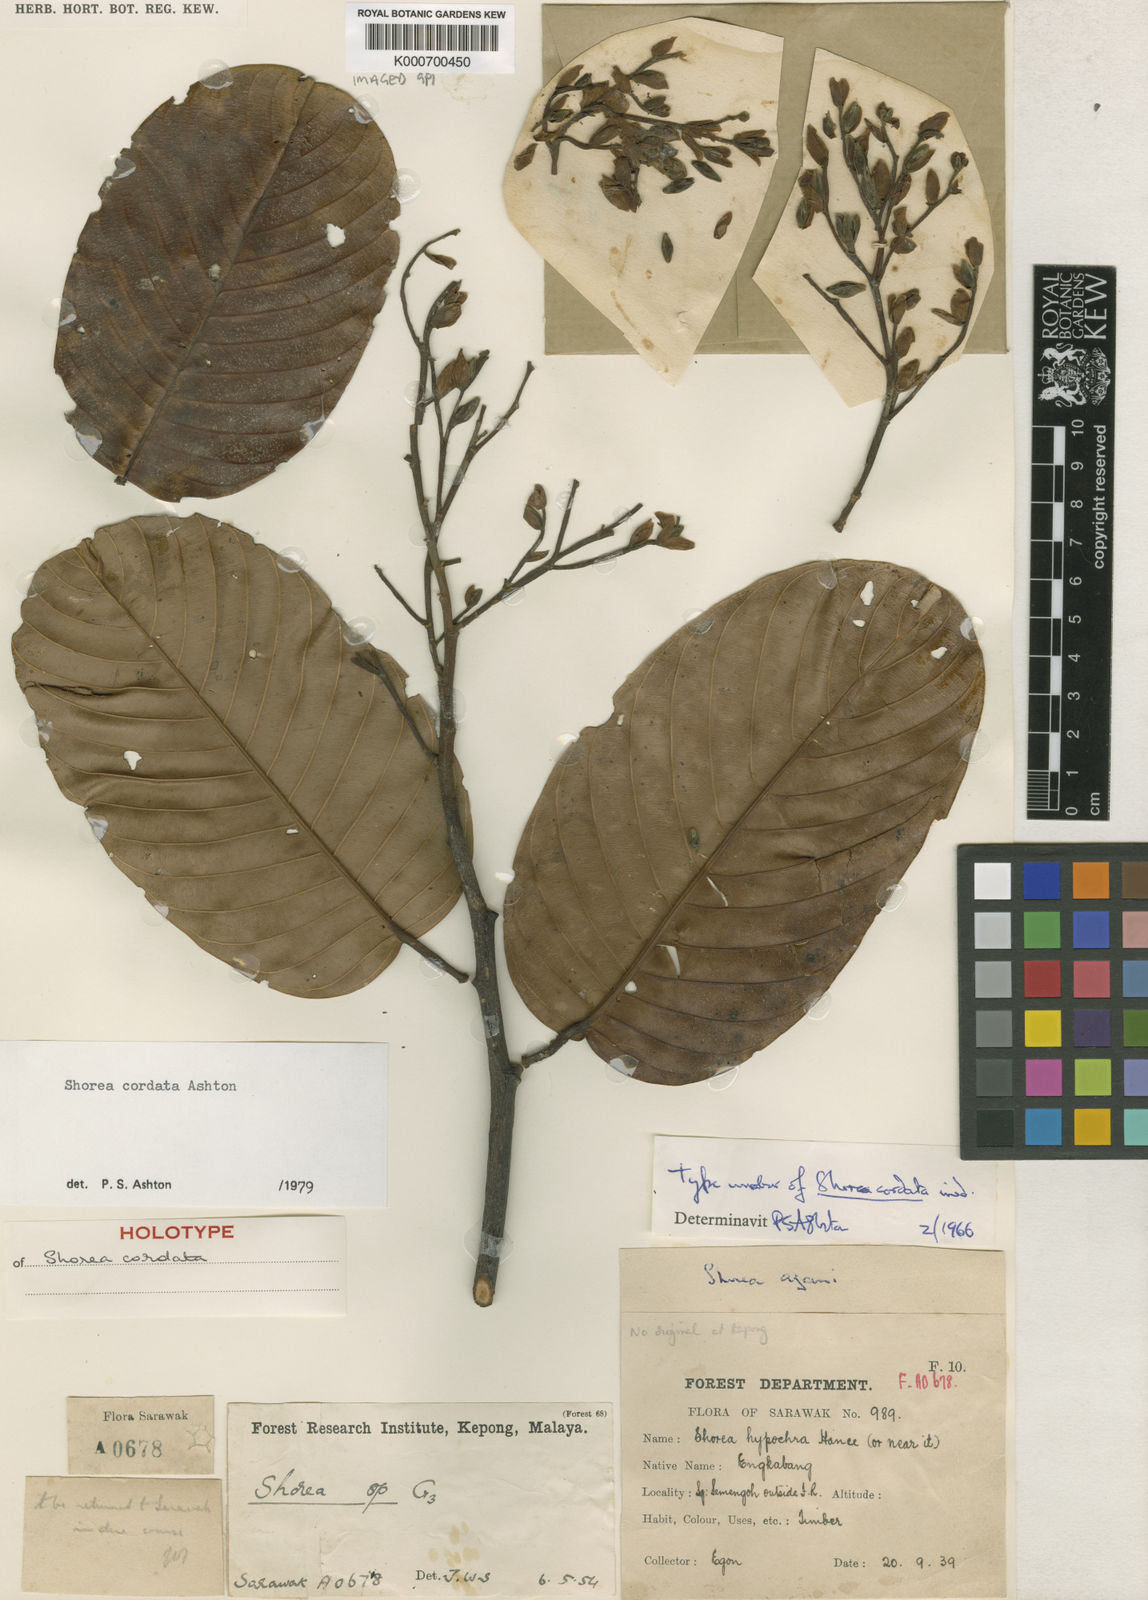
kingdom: Plantae
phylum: Tracheophyta
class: Magnoliopsida
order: Malvales
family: Dipterocarpaceae
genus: Anthoshorea
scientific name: Anthoshorea cordata
